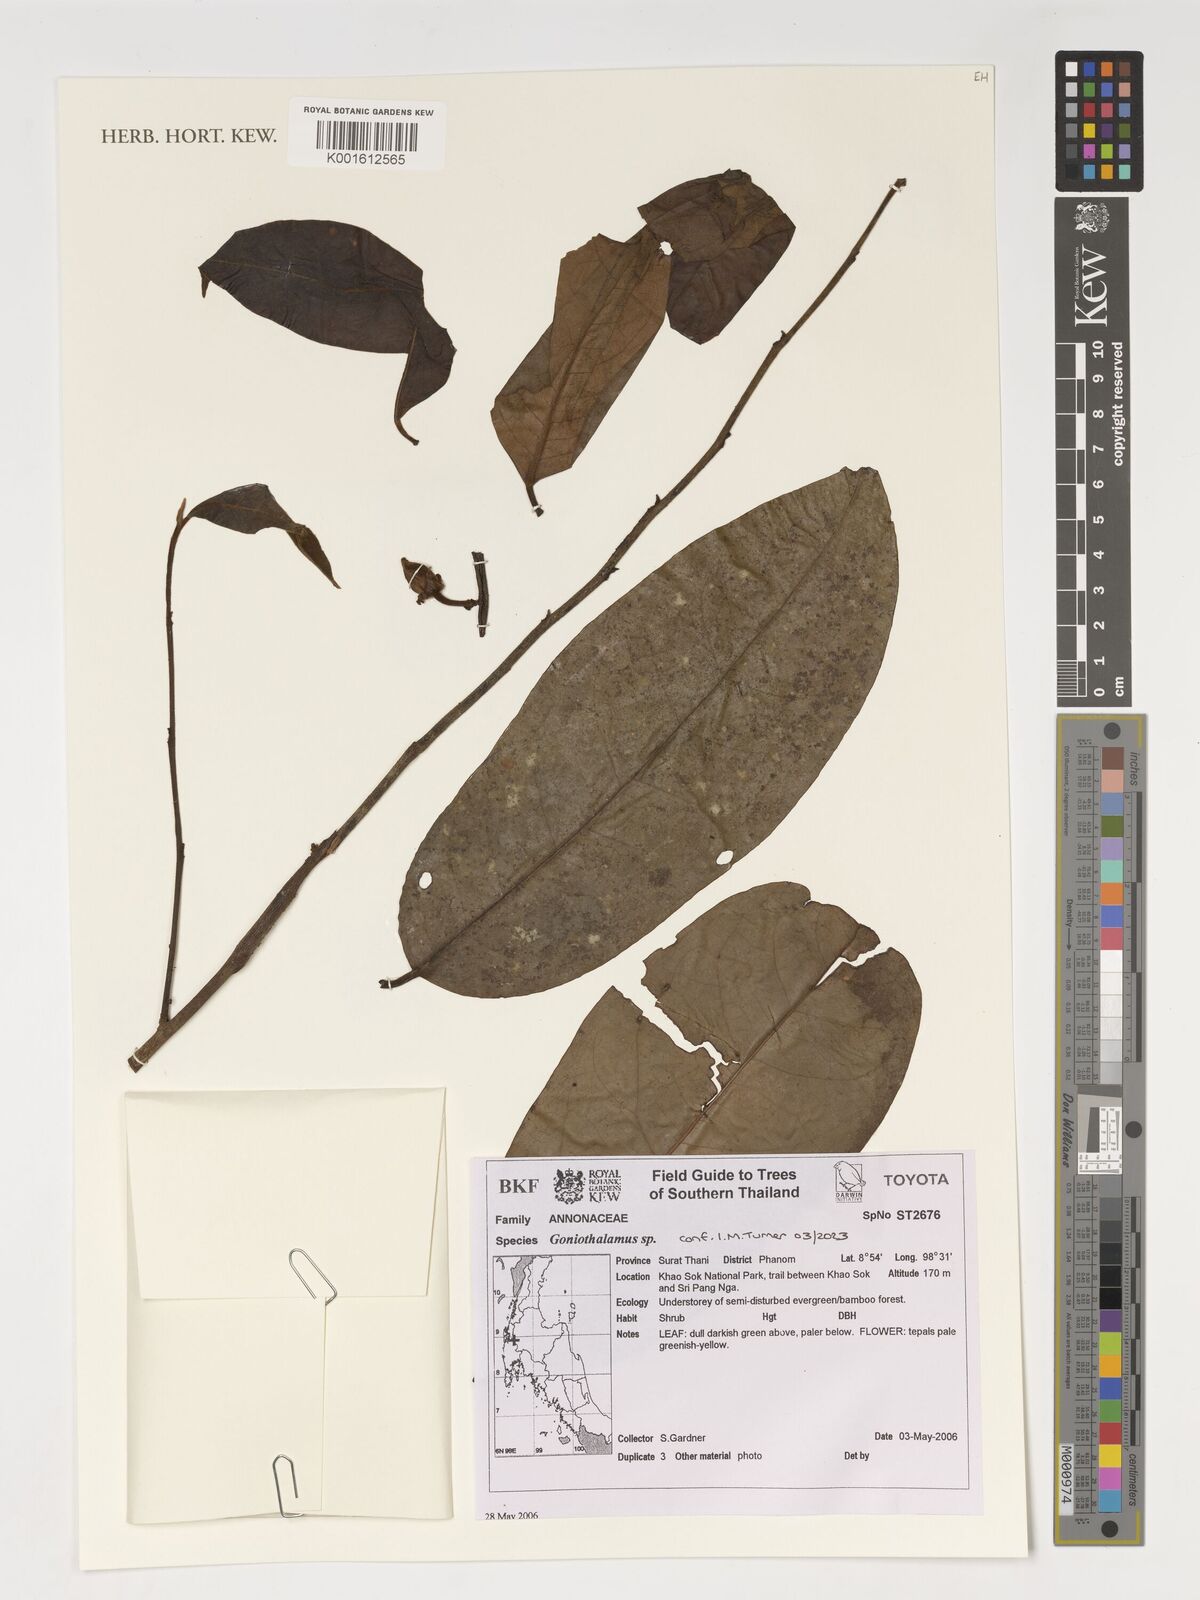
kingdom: Plantae
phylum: Tracheophyta
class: Magnoliopsida
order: Magnoliales
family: Annonaceae
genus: Goniothalamus
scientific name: Goniothalamus
